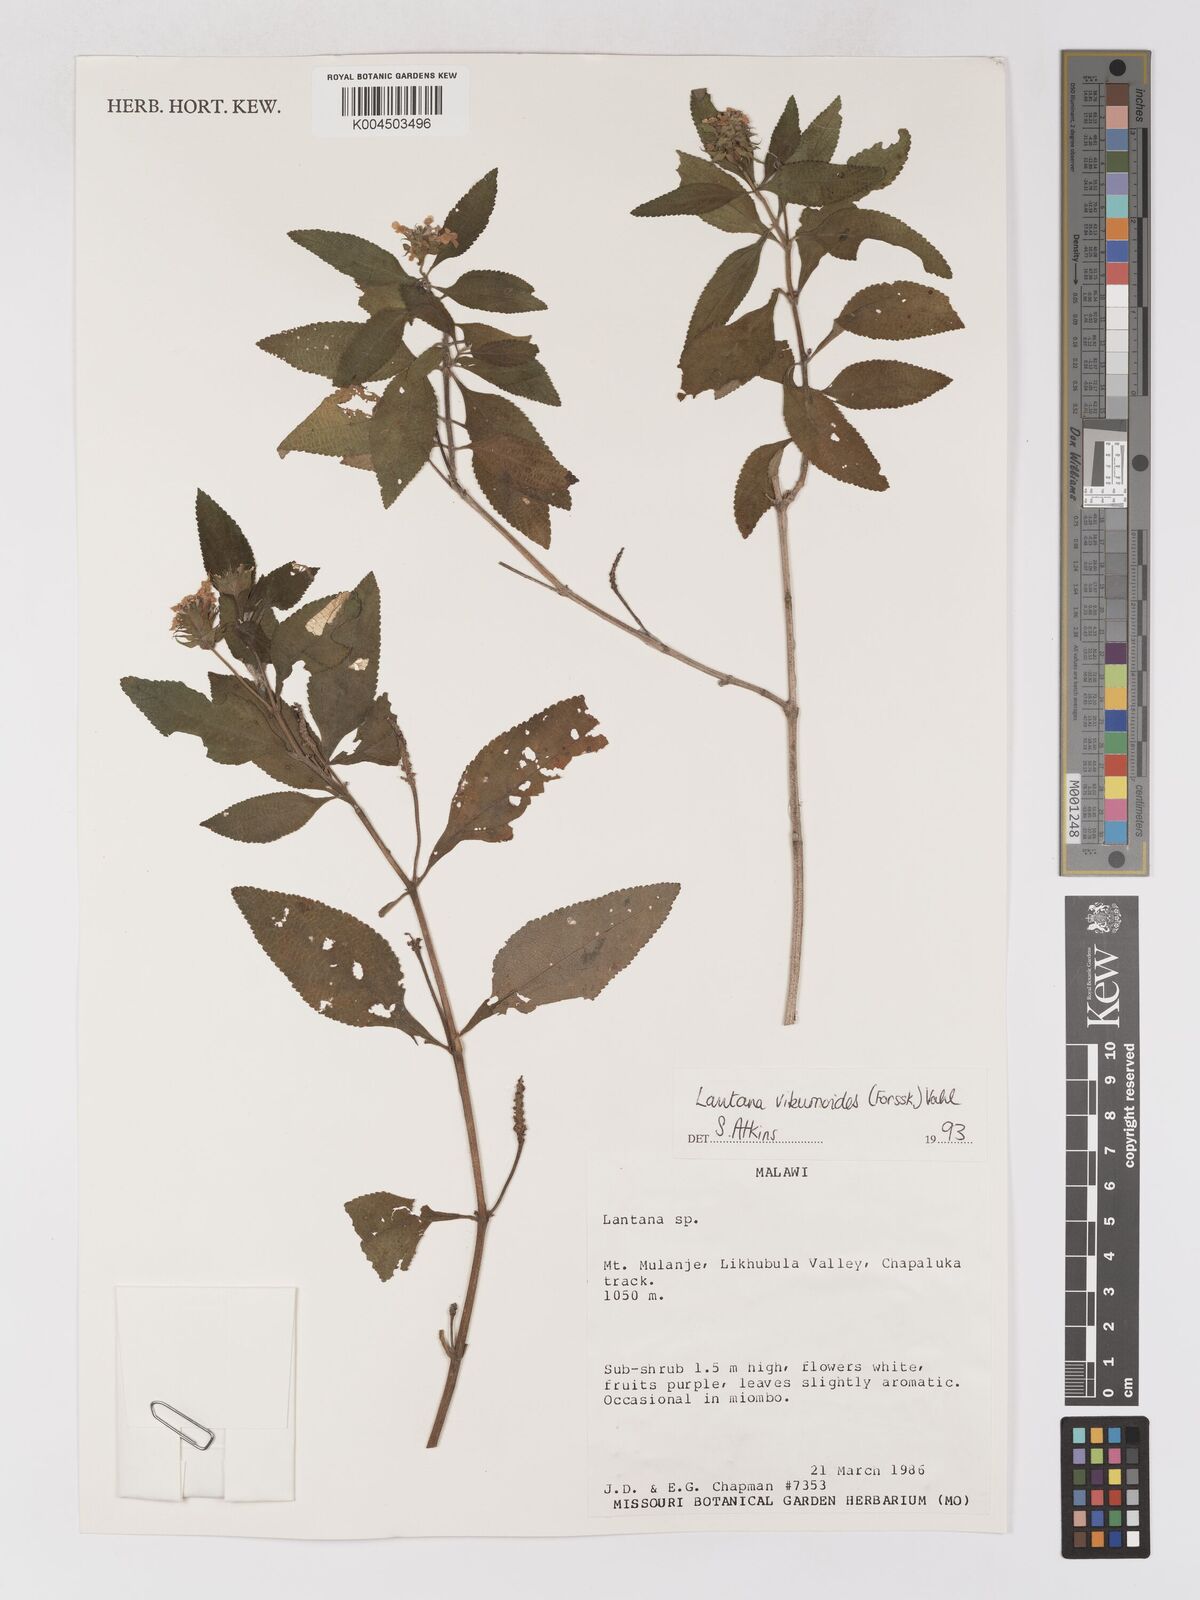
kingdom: Plantae
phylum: Tracheophyta
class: Magnoliopsida
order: Lamiales
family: Verbenaceae
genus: Lantana
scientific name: Lantana
